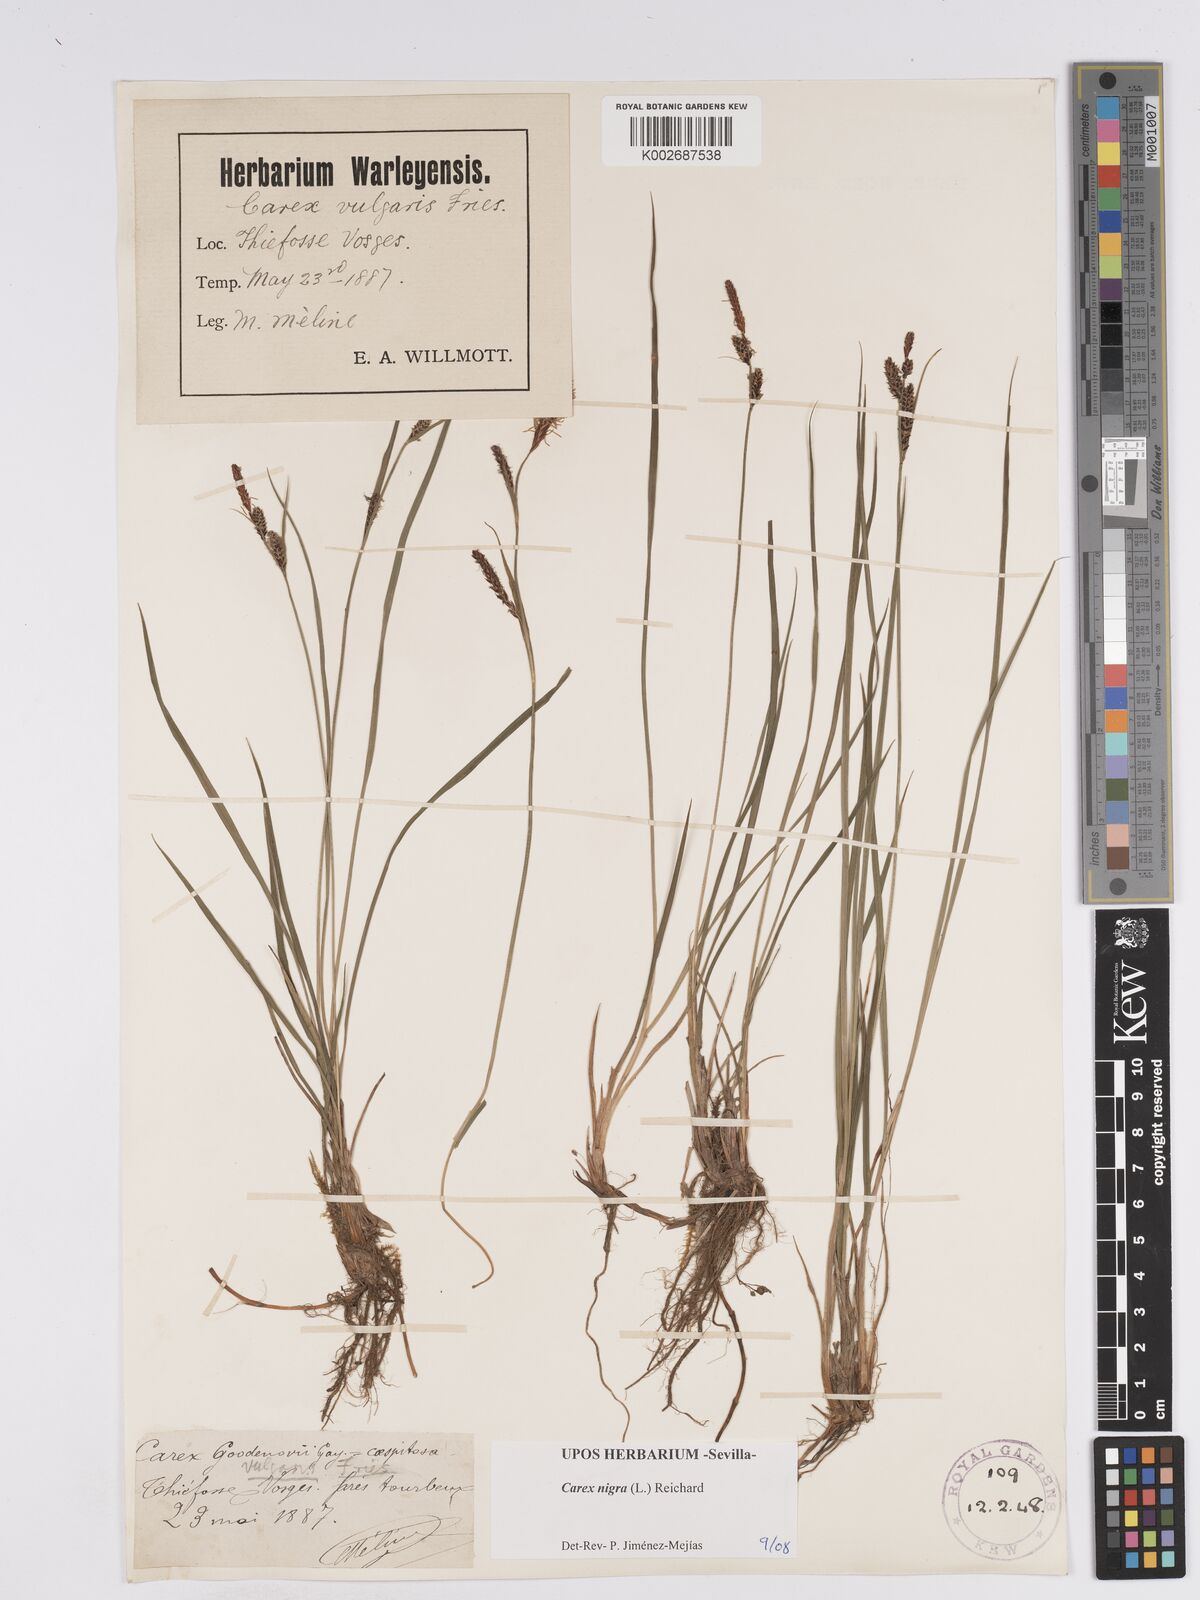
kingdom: Plantae
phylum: Tracheophyta
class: Liliopsida
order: Poales
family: Cyperaceae
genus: Carex
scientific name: Carex nigra
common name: Common sedge
